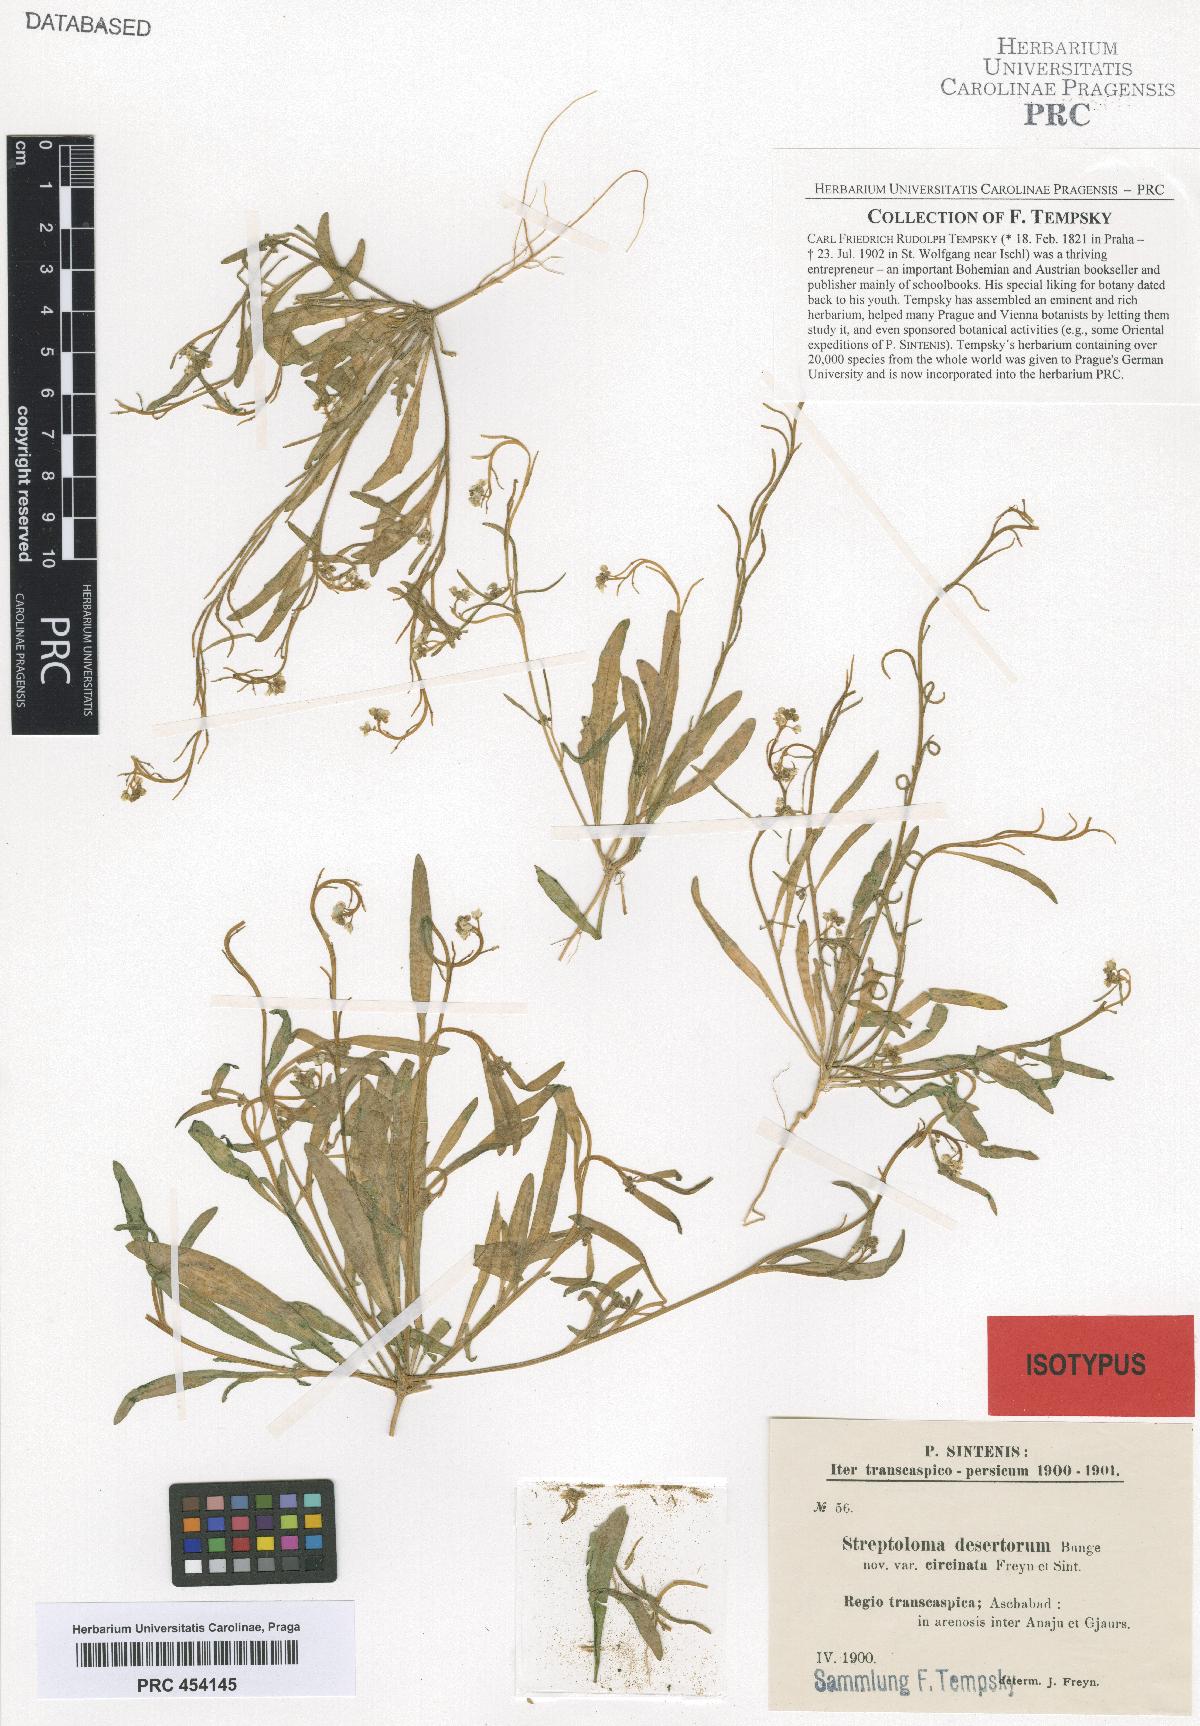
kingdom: Plantae
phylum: Tracheophyta
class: Magnoliopsida
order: Brassicales
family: Brassicaceae
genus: Streptoloma
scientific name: Streptoloma desertorum
